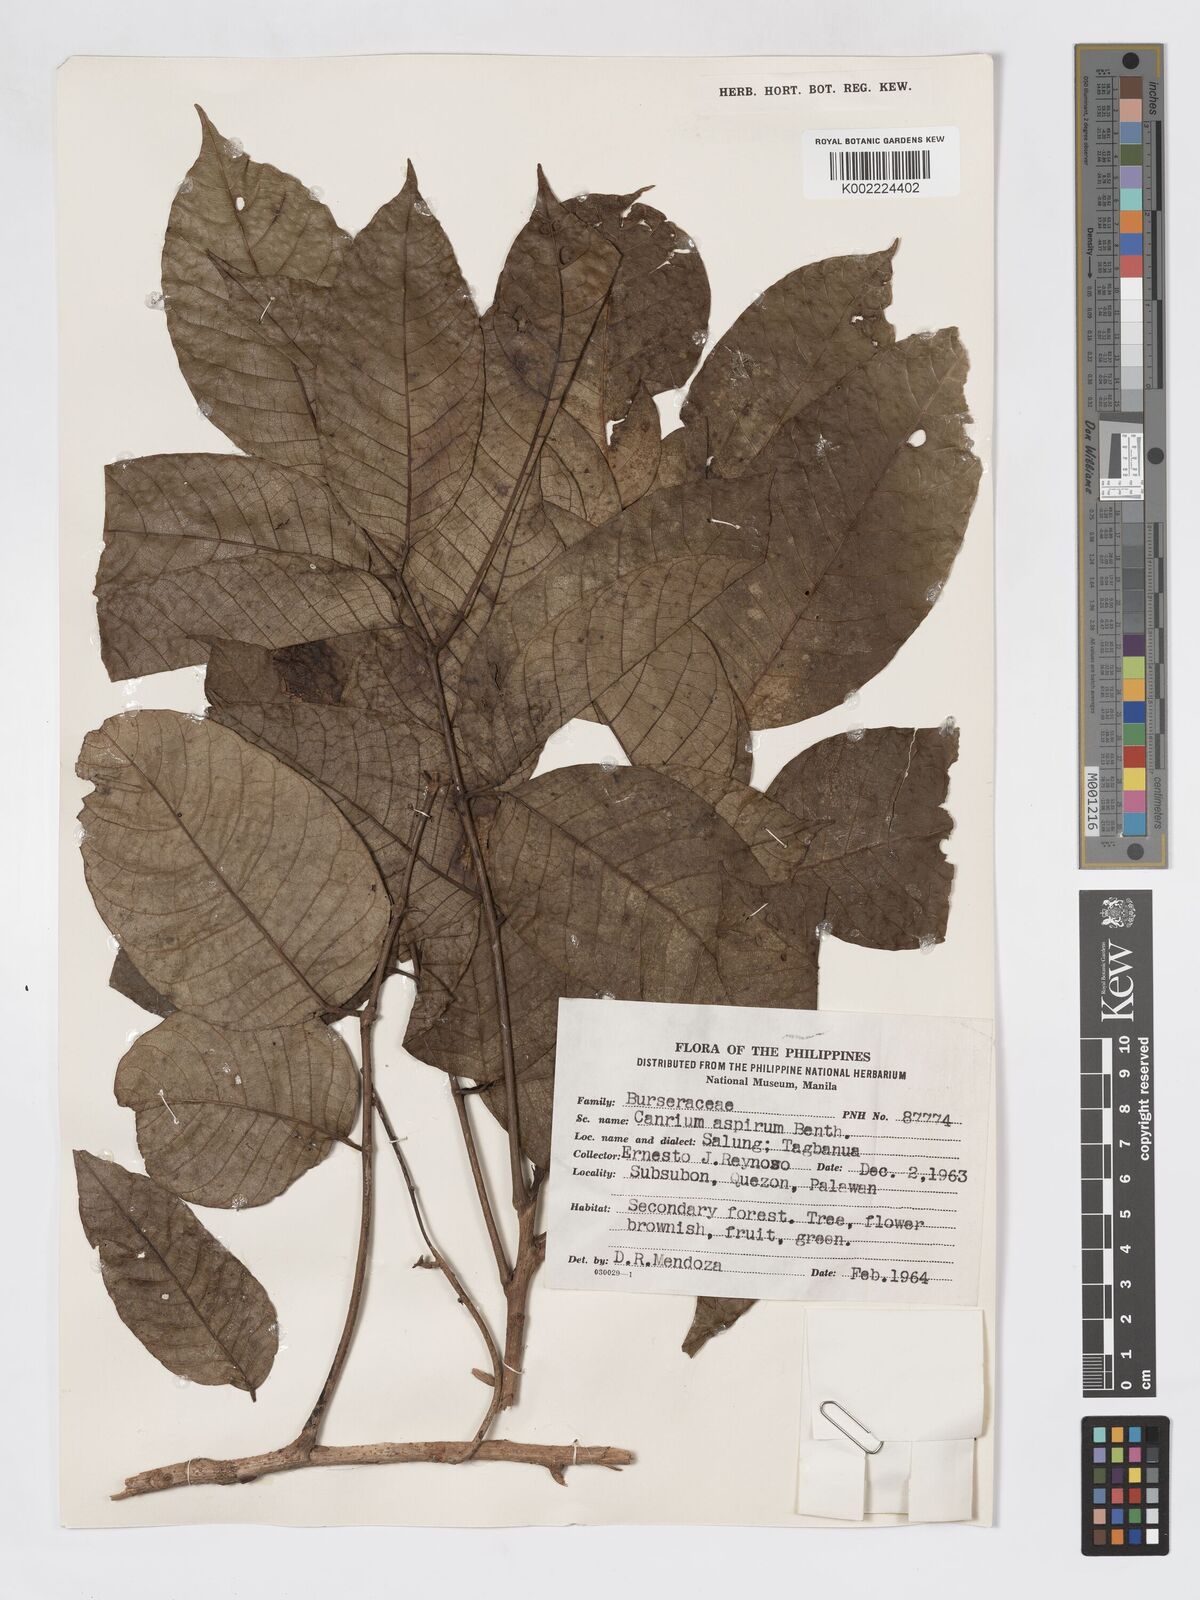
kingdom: Plantae
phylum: Tracheophyta
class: Magnoliopsida
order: Sapindales
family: Burseraceae
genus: Canarium
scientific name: Canarium asperum
